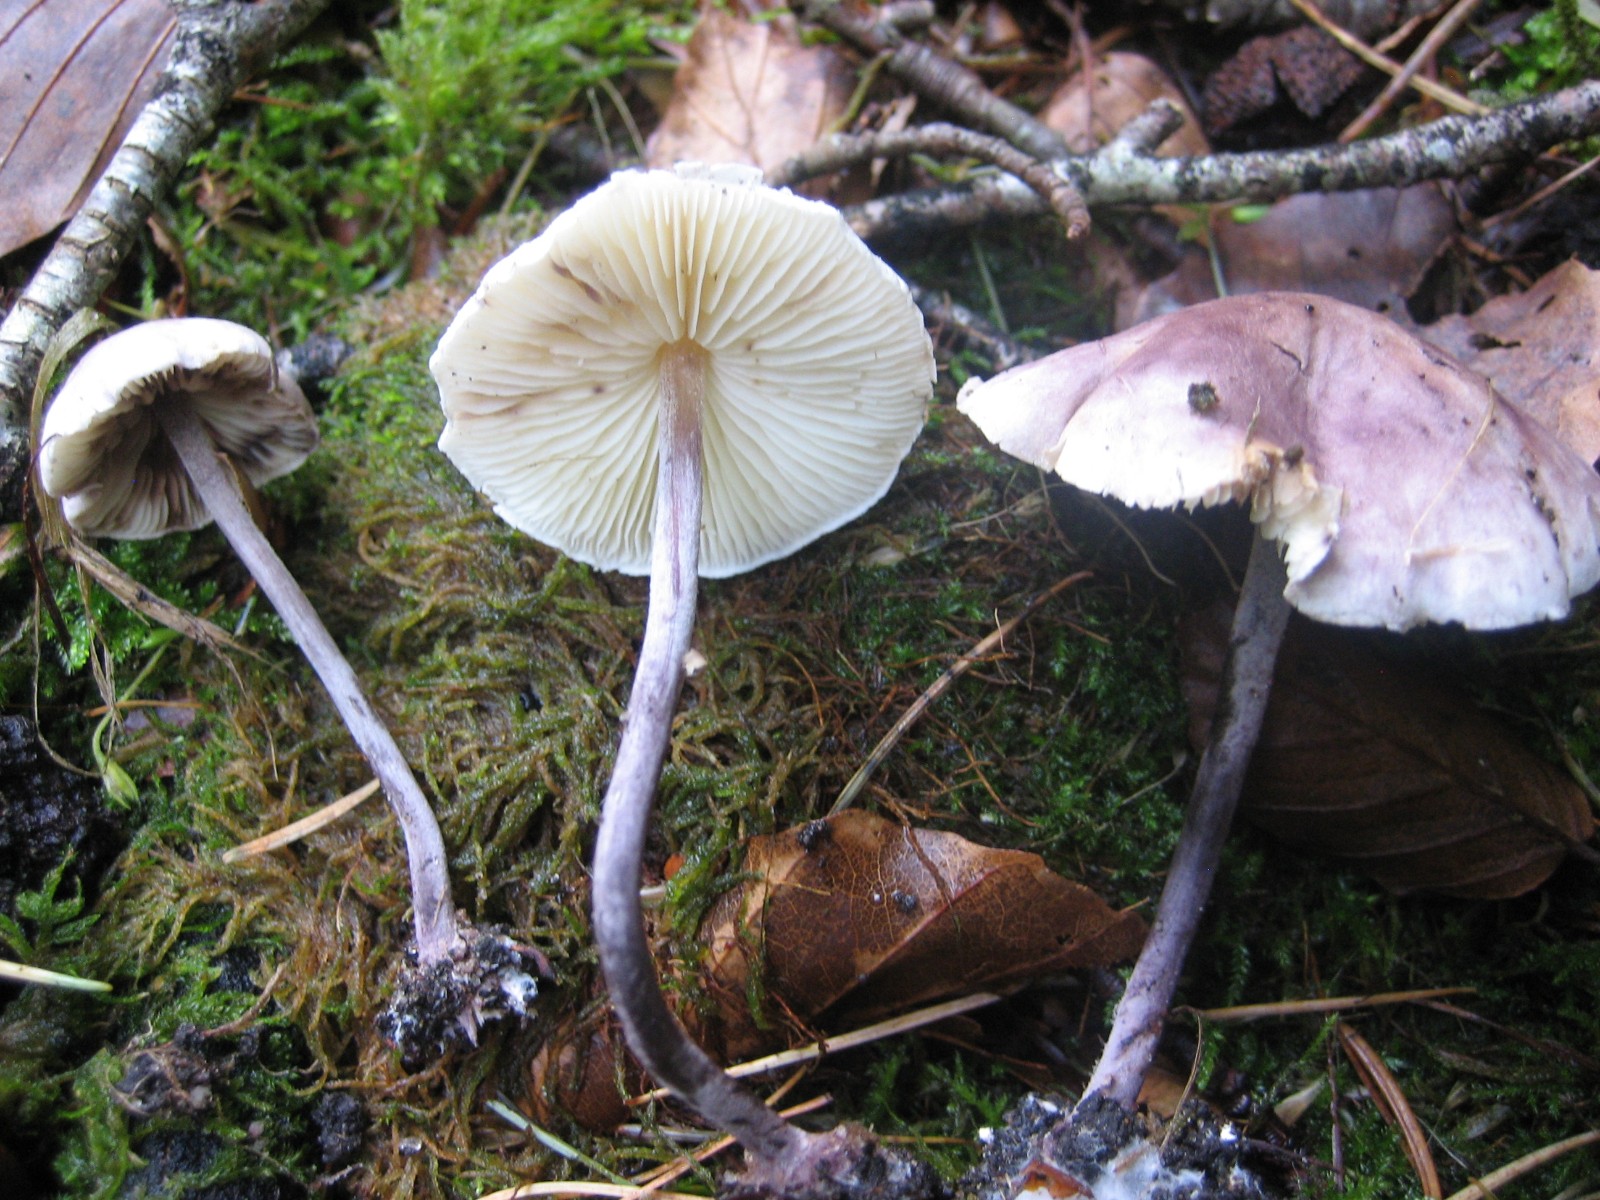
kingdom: Fungi
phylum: Basidiomycota
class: Agaricomycetes
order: Agaricales
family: Agaricaceae
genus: Cystolepiota
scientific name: Cystolepiota bucknallii
